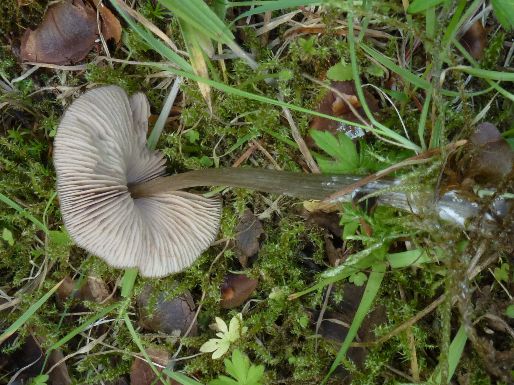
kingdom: Fungi
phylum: Basidiomycota
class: Agaricomycetes
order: Agaricales
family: Entolomataceae
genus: Entoloma
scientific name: Entoloma cetratum
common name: voks-rødblad
